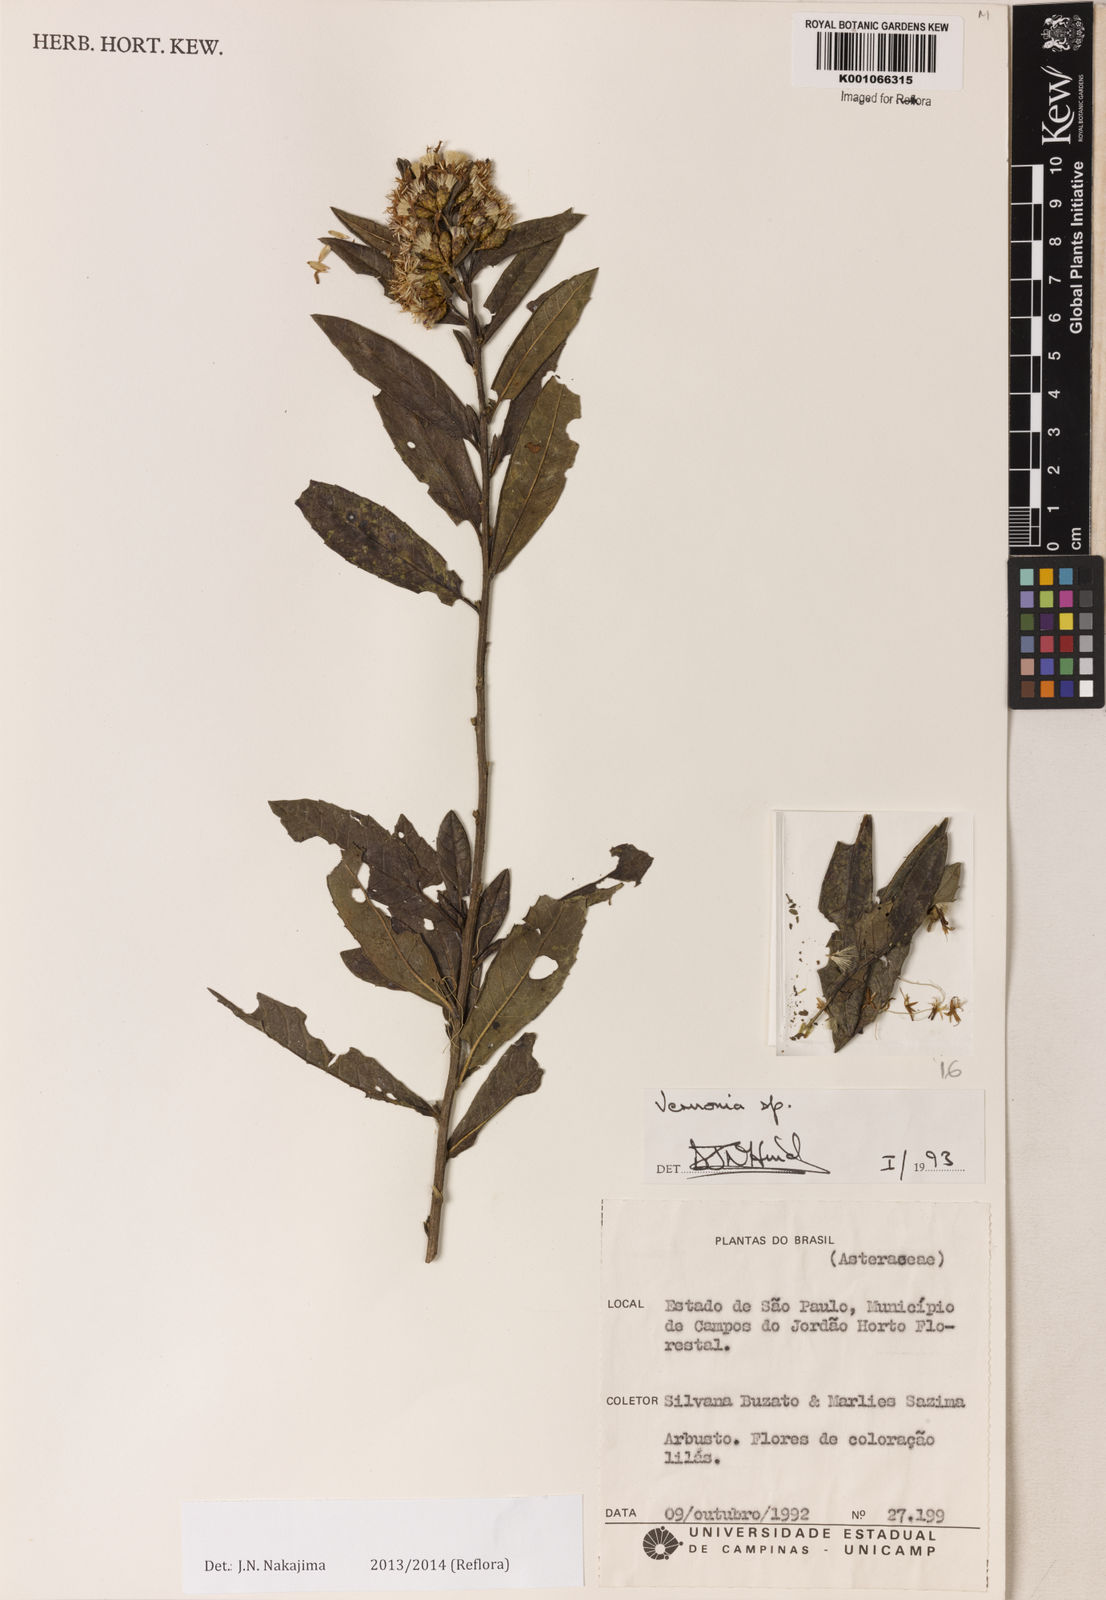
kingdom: Plantae
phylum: Tracheophyta
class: Magnoliopsida
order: Asterales
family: Asteraceae
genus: Vernonanthura
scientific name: Vernonanthura ferruginea
